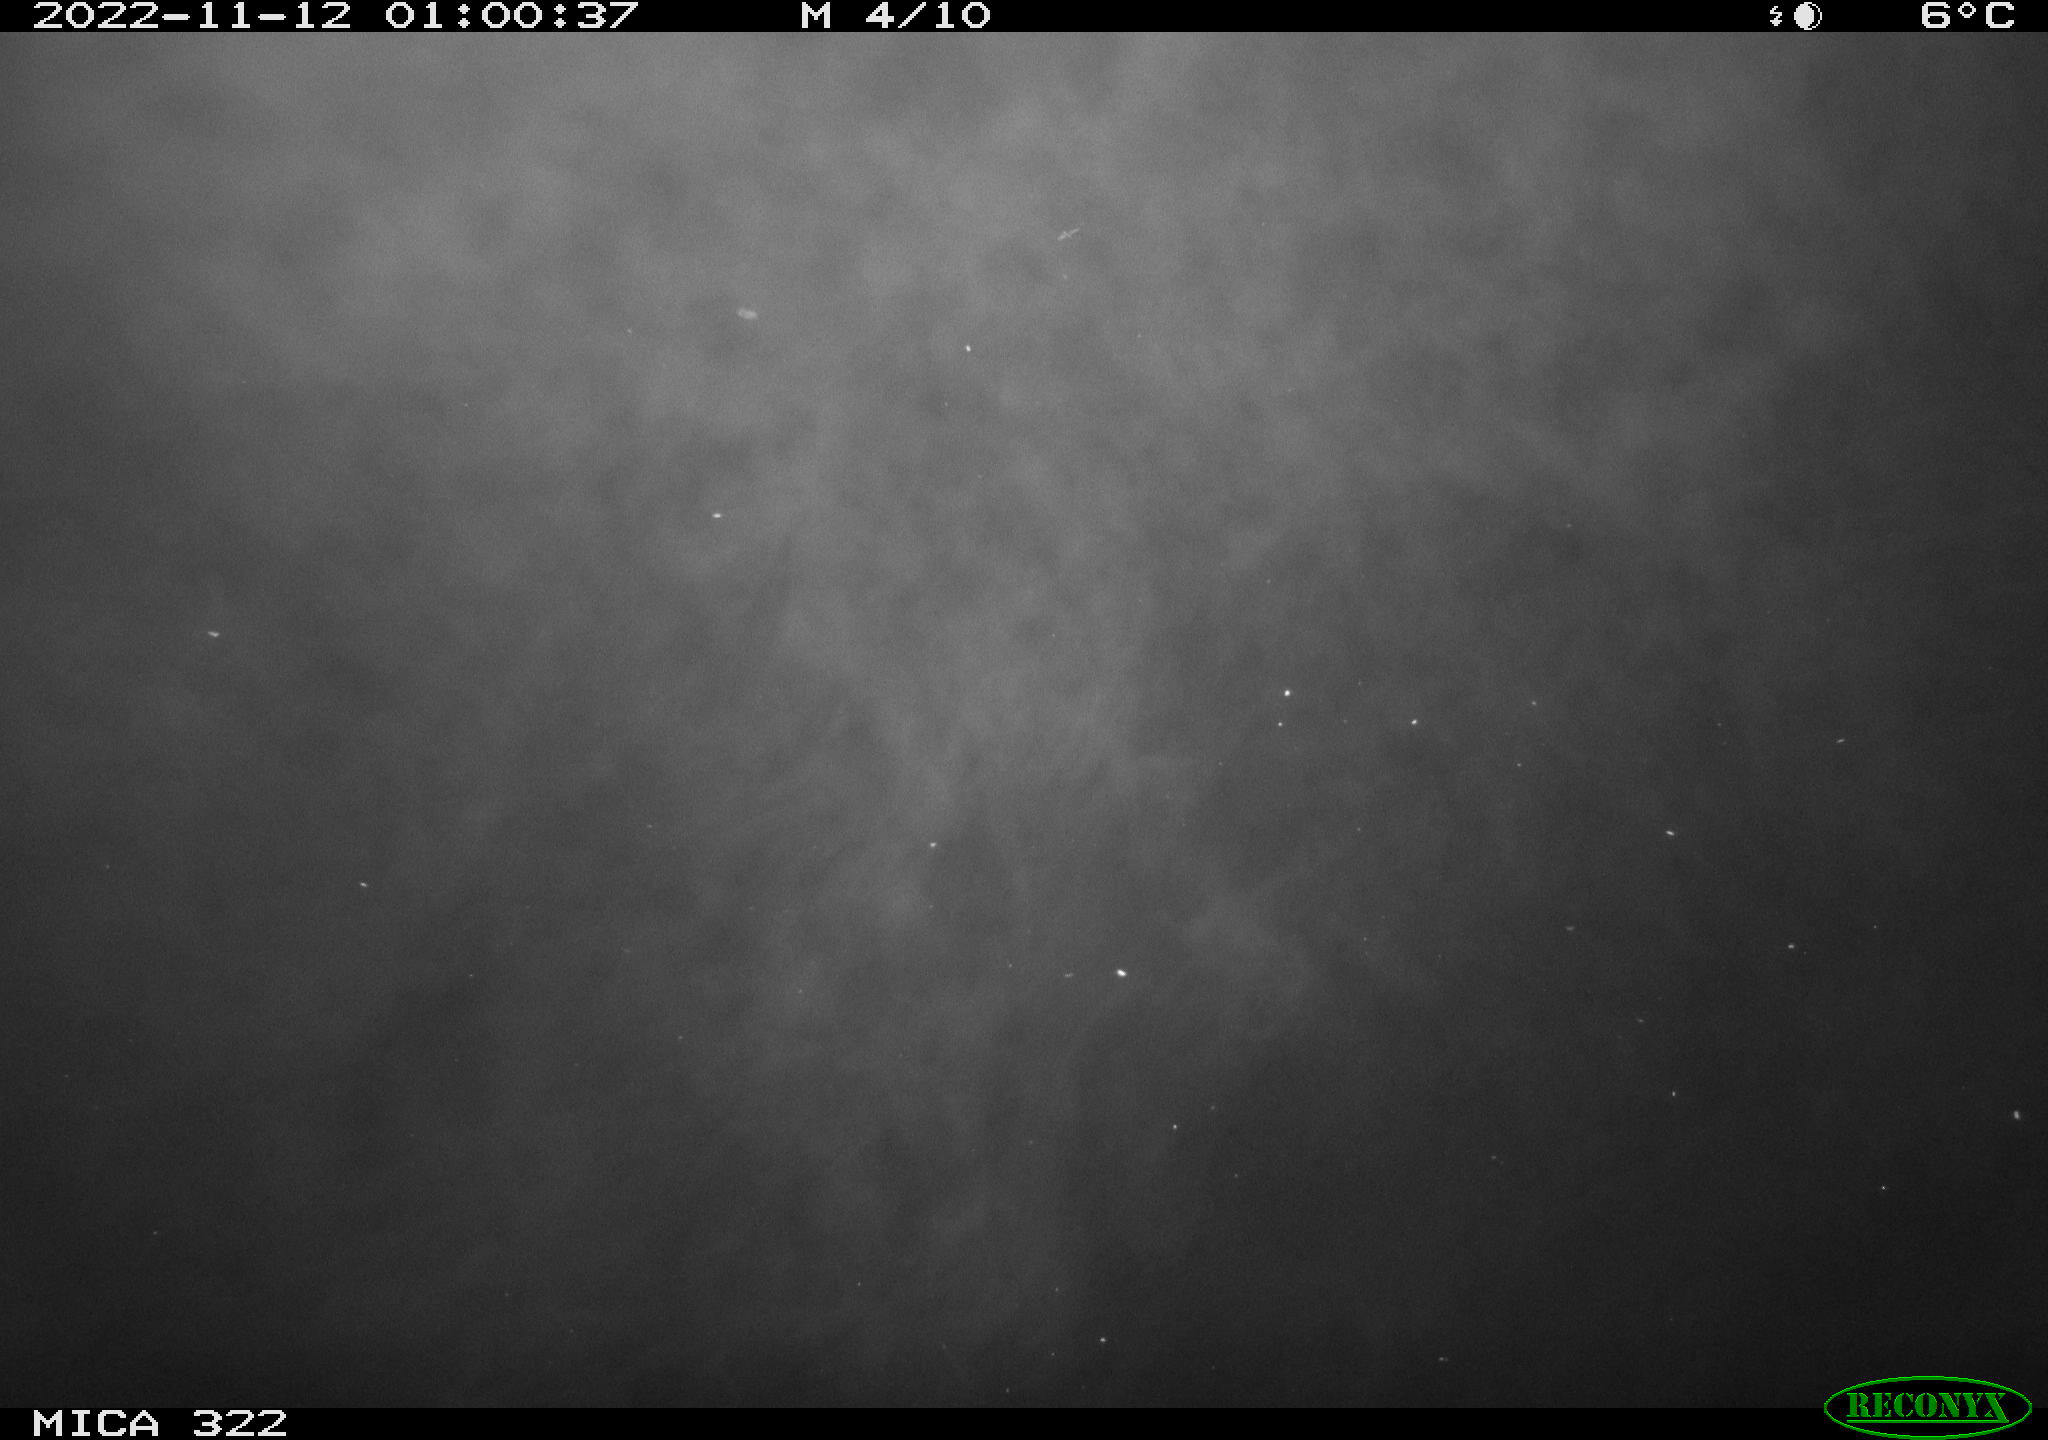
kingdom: Animalia
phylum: Chordata
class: Mammalia
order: Rodentia
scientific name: Rodentia
